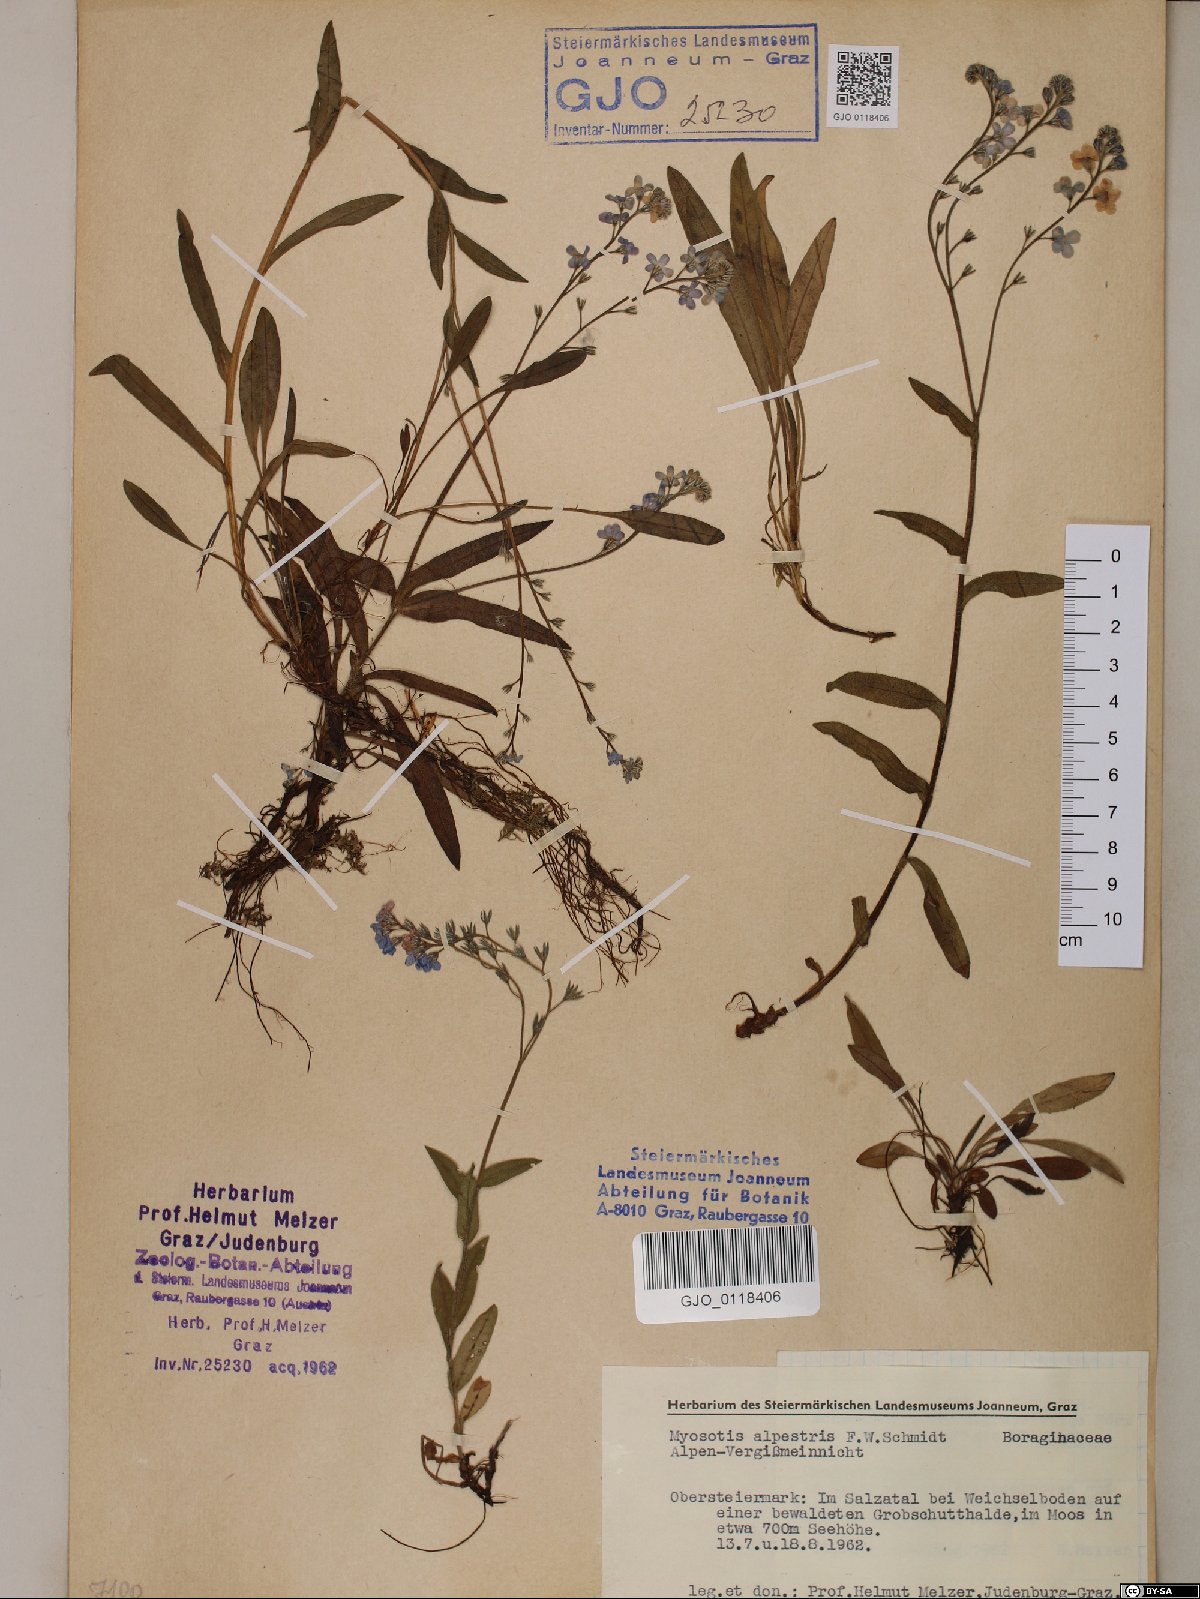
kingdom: Plantae
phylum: Tracheophyta
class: Magnoliopsida
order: Boraginales
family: Boraginaceae
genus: Myosotis
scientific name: Myosotis alpestris
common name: Alpine forget-me-not
